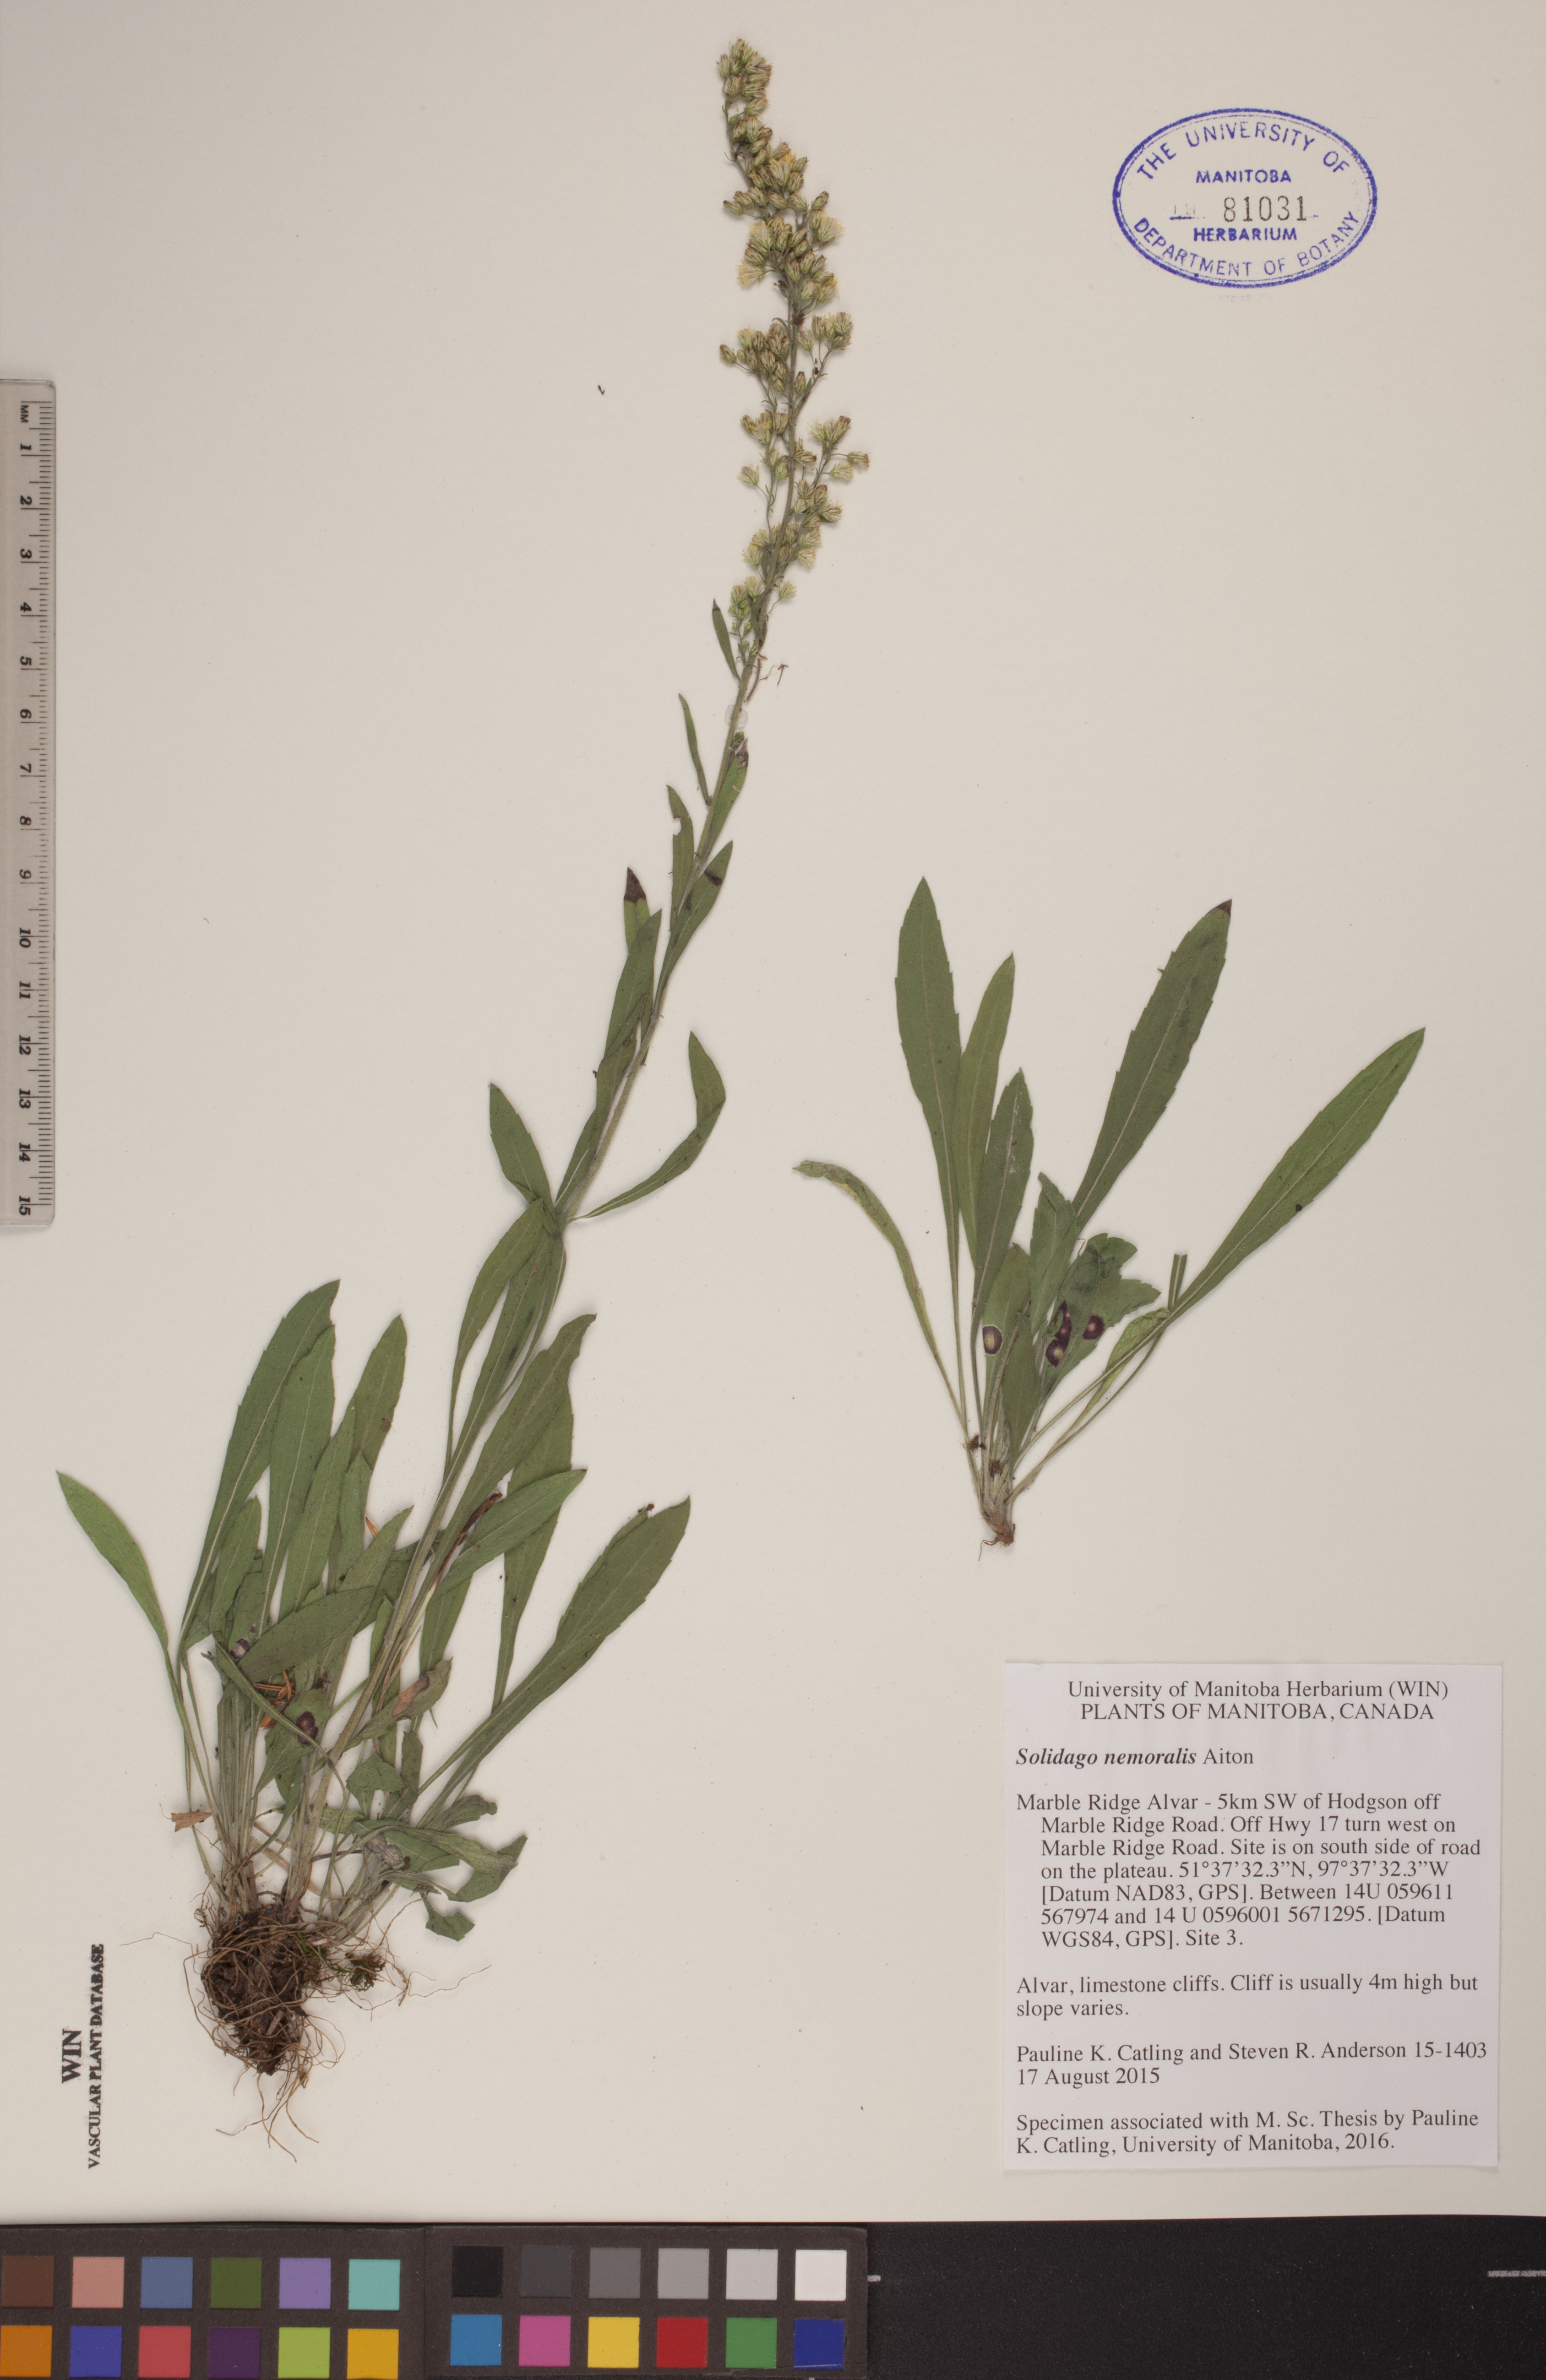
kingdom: Plantae
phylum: Tracheophyta
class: Magnoliopsida
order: Asterales
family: Asteraceae
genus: Solidago
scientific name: Solidago nemoralis
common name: Grey goldenrod
